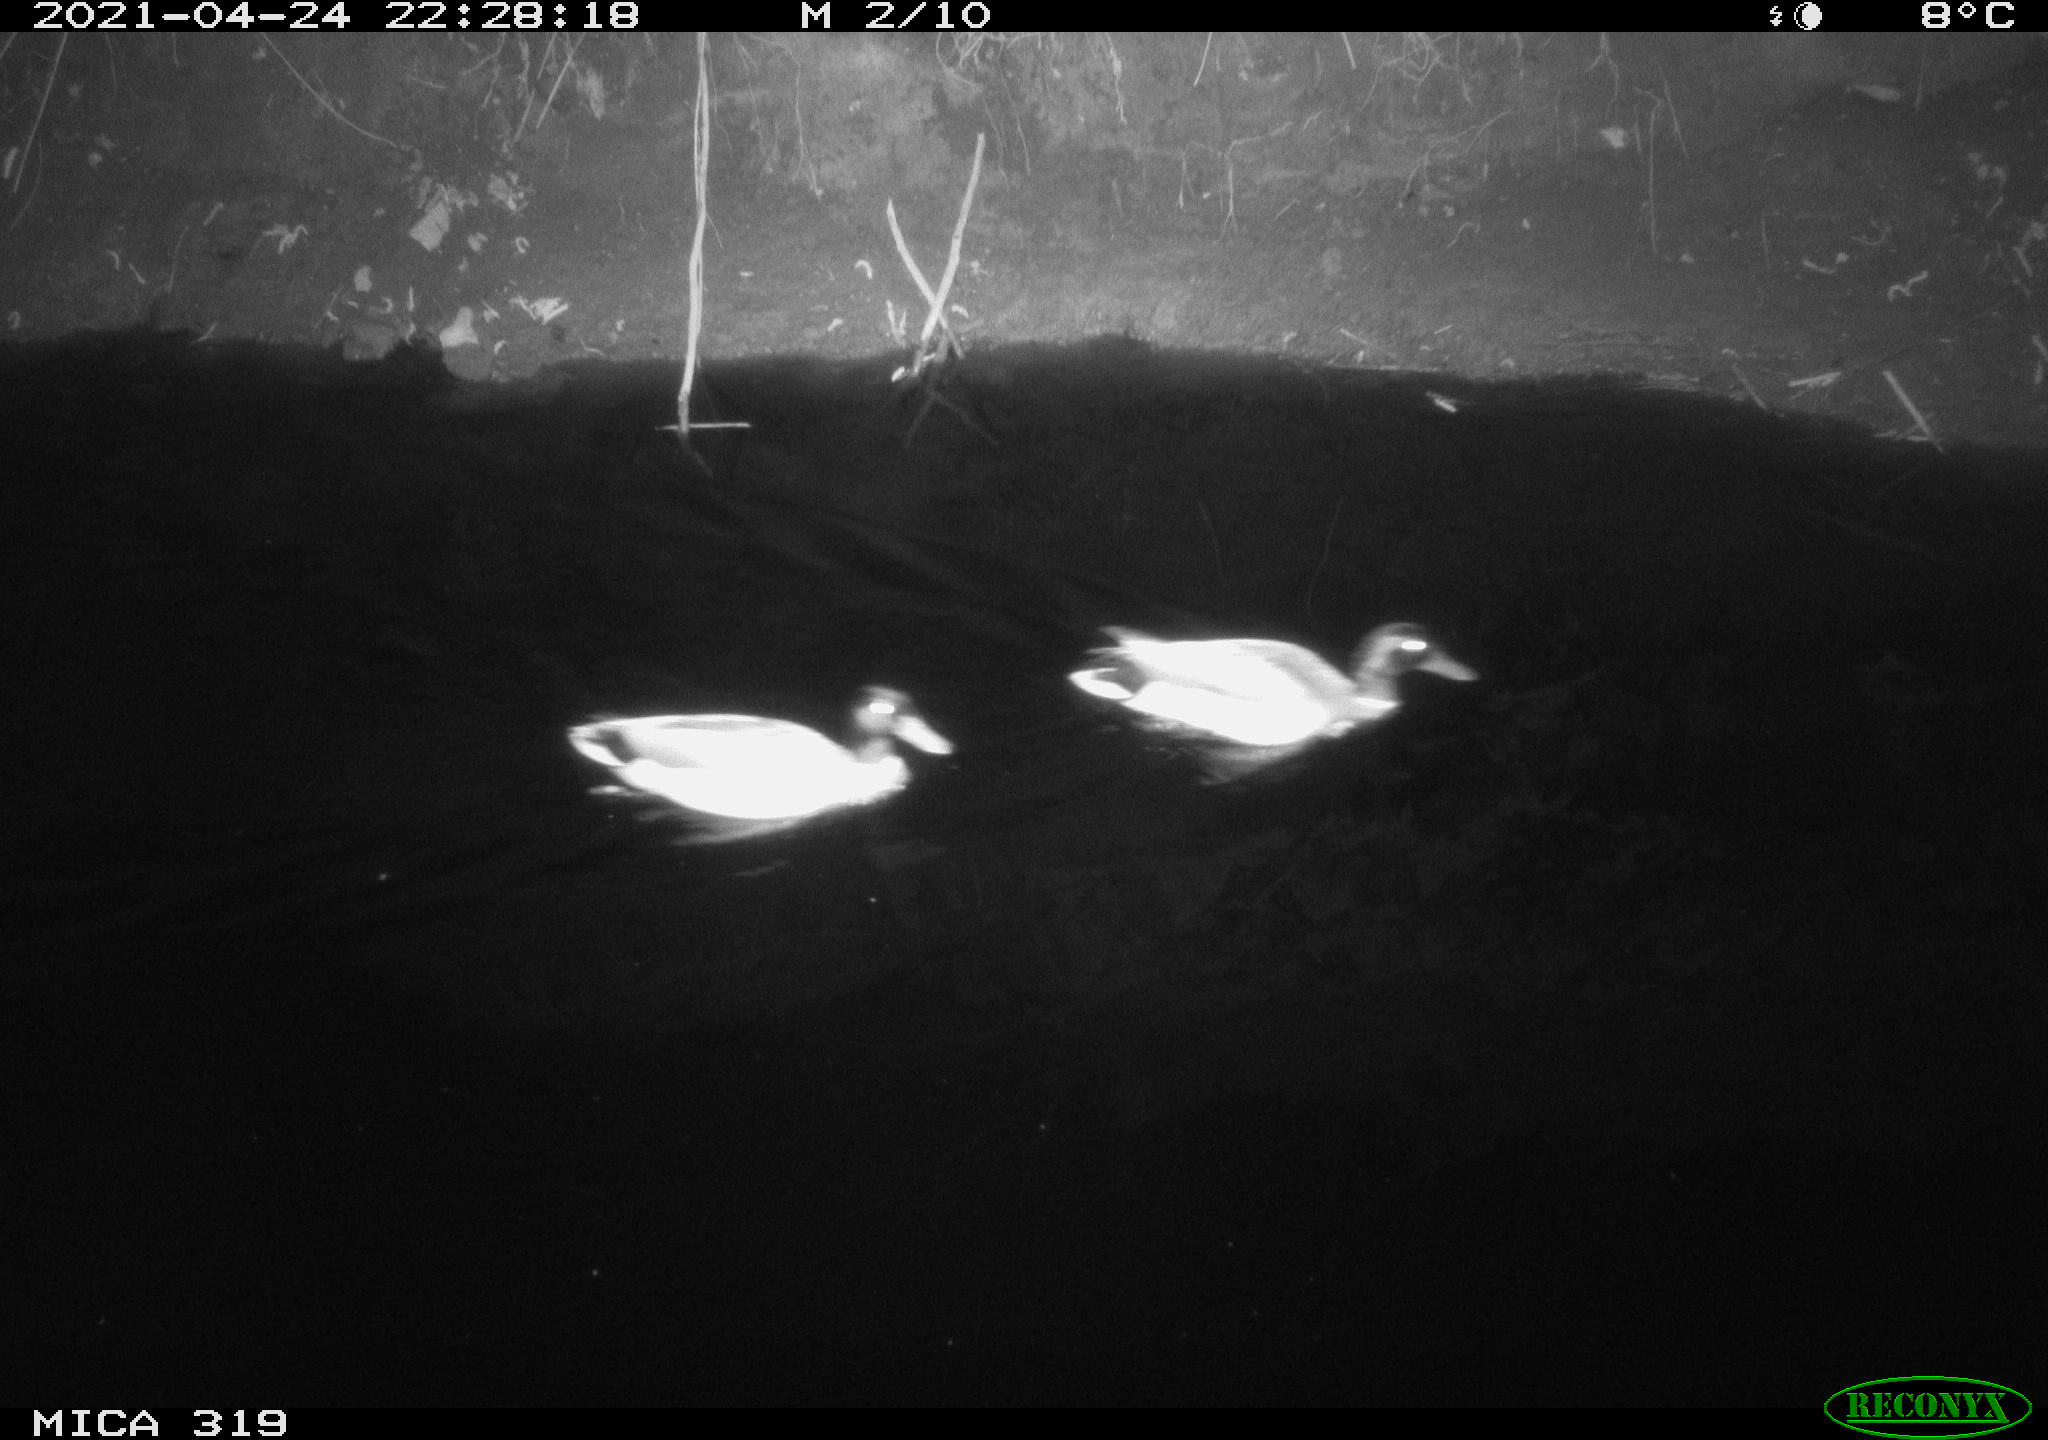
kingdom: Animalia
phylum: Chordata
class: Aves
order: Anseriformes
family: Anatidae
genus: Anas
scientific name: Anas platyrhynchos
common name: Mallard
